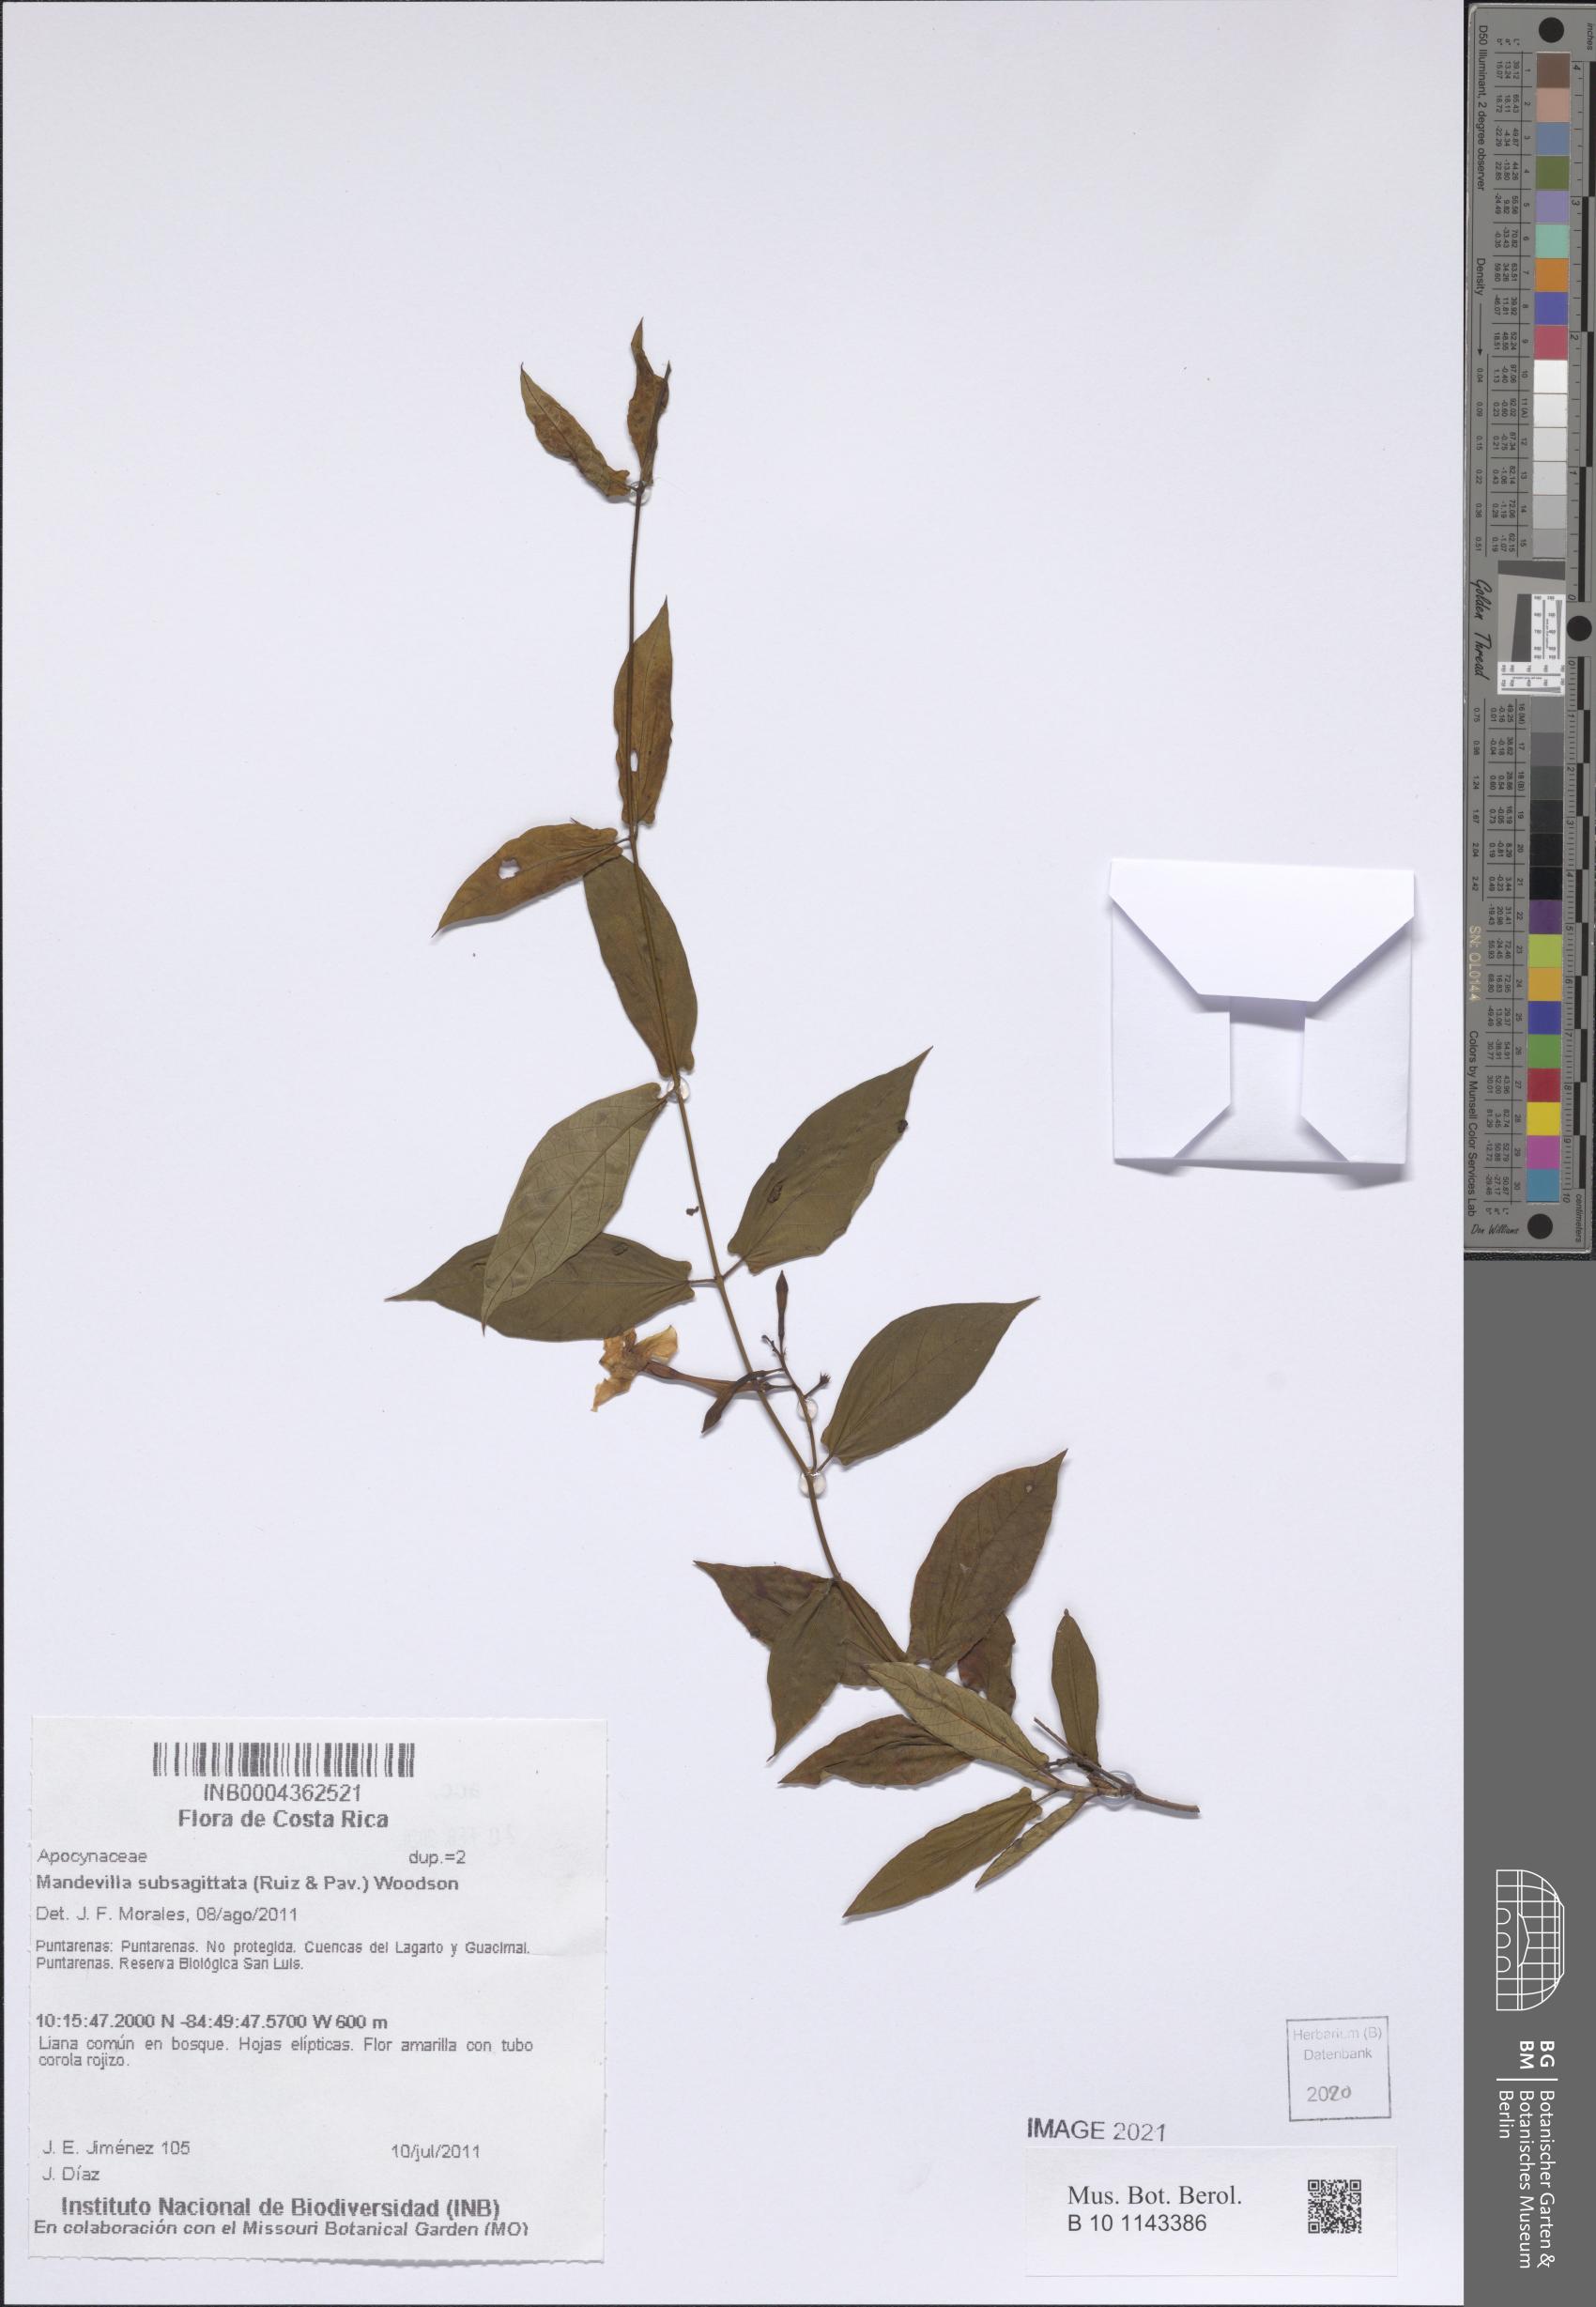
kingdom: Plantae
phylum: Tracheophyta
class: Magnoliopsida
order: Gentianales
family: Apocynaceae
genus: Mandevilla
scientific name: Mandevilla subsagittata
